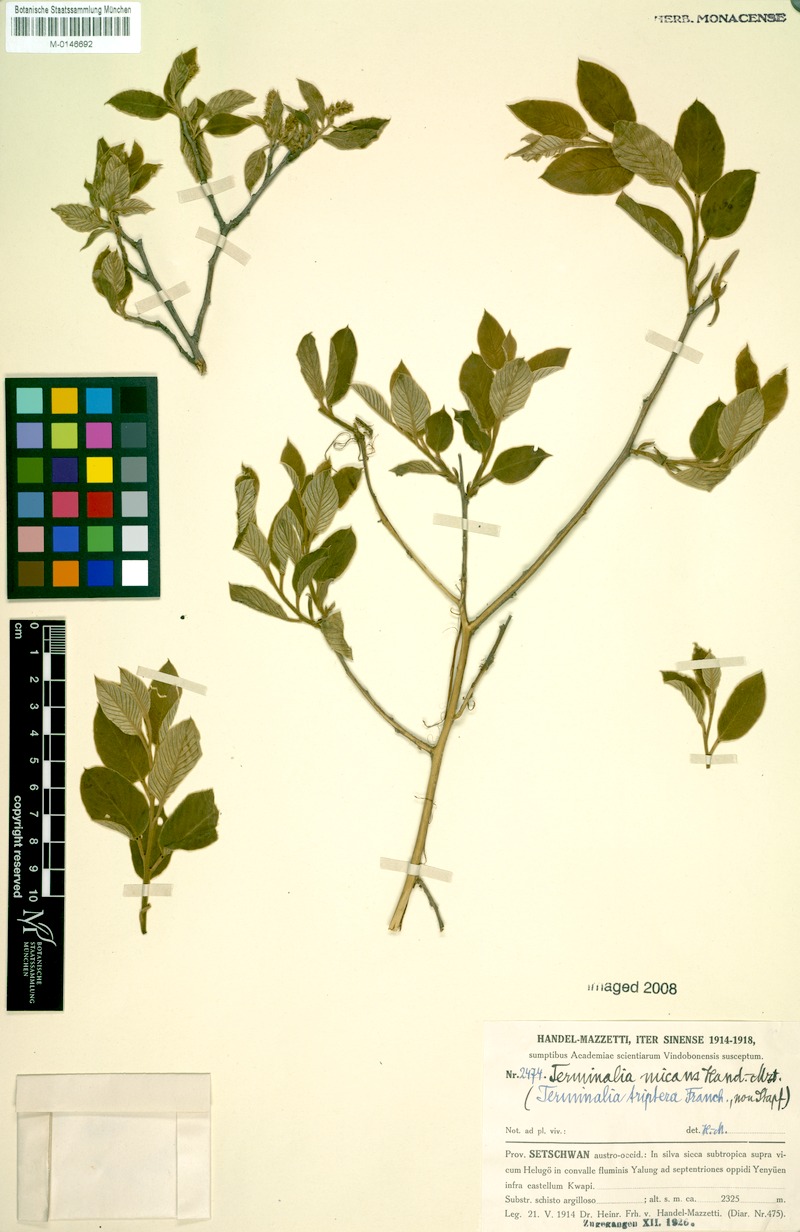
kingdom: Plantae
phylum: Tracheophyta
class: Magnoliopsida
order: Myrtales
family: Combretaceae
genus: Terminalia
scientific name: Terminalia franchetii
